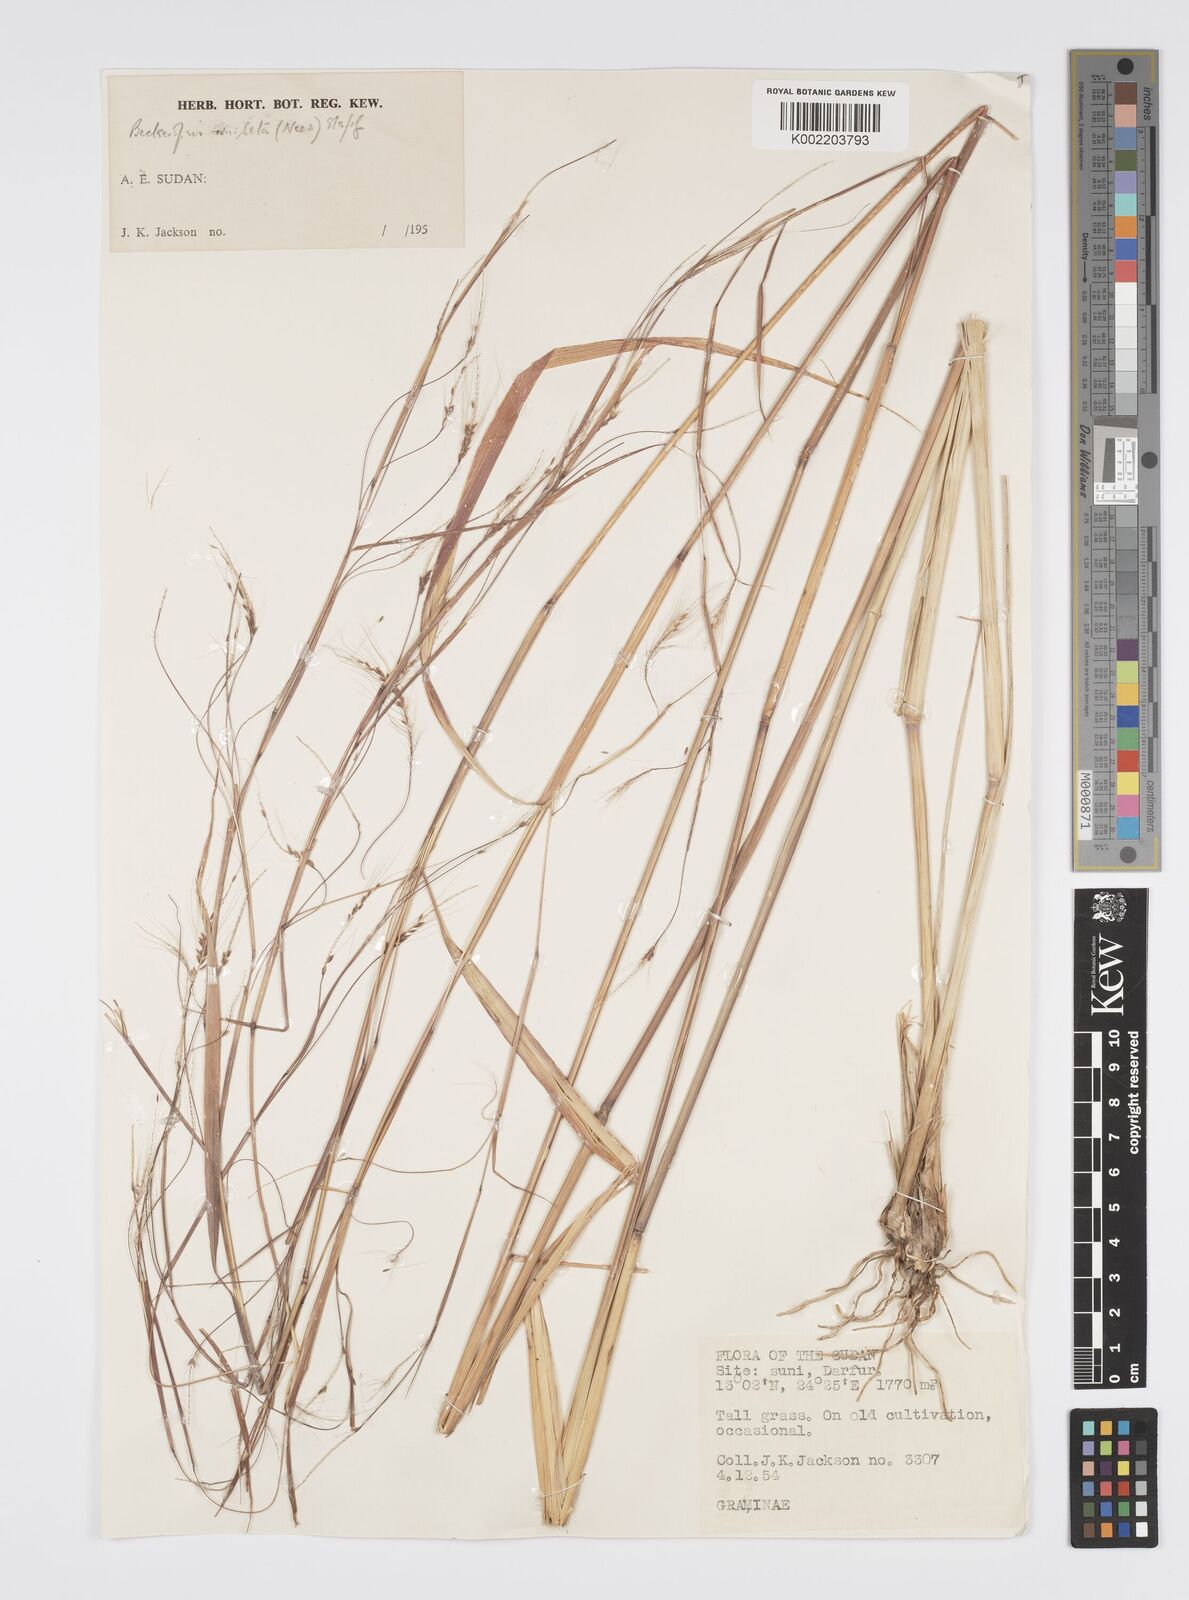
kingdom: Plantae
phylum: Tracheophyta
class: Liliopsida
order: Poales
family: Poaceae
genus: Cenchrus
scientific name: Cenchrus unisetus
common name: Natal grass
